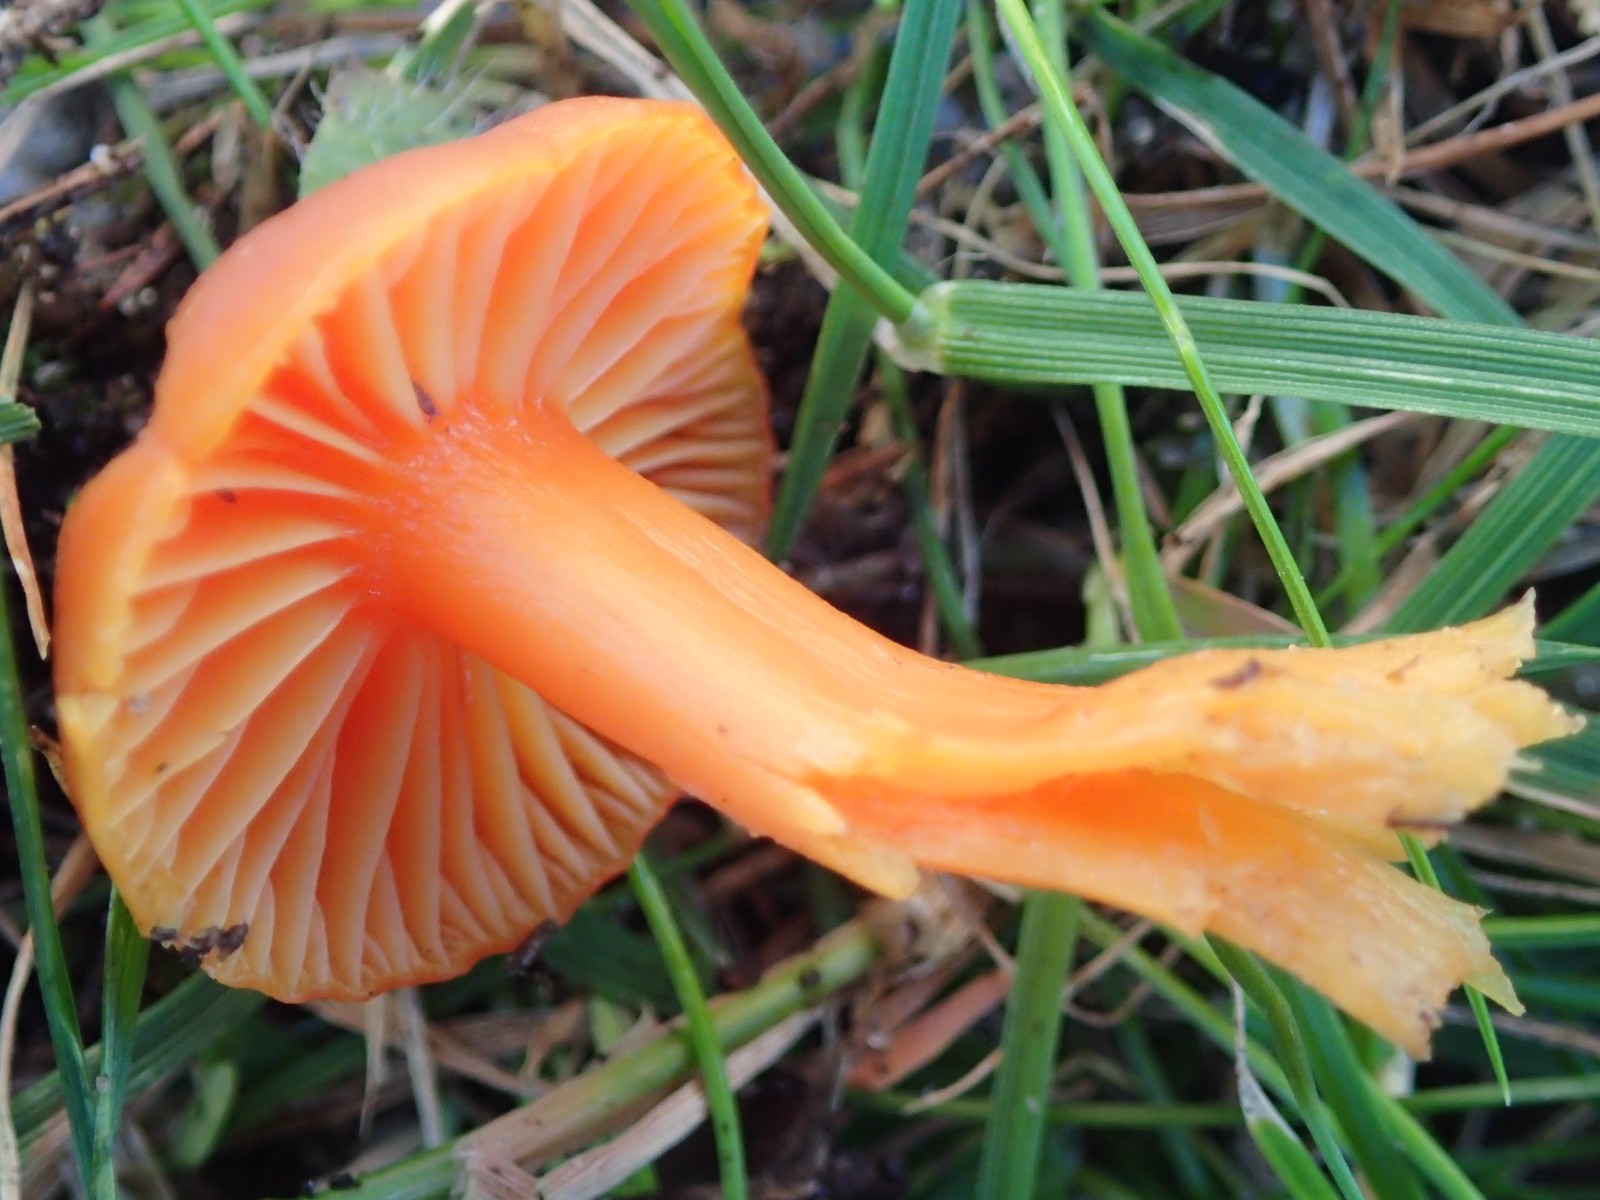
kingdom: Fungi
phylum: Basidiomycota
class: Agaricomycetes
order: Agaricales
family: Hygrophoraceae
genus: Hygrocybe
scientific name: Hygrocybe reidii
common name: honning-vokshat
